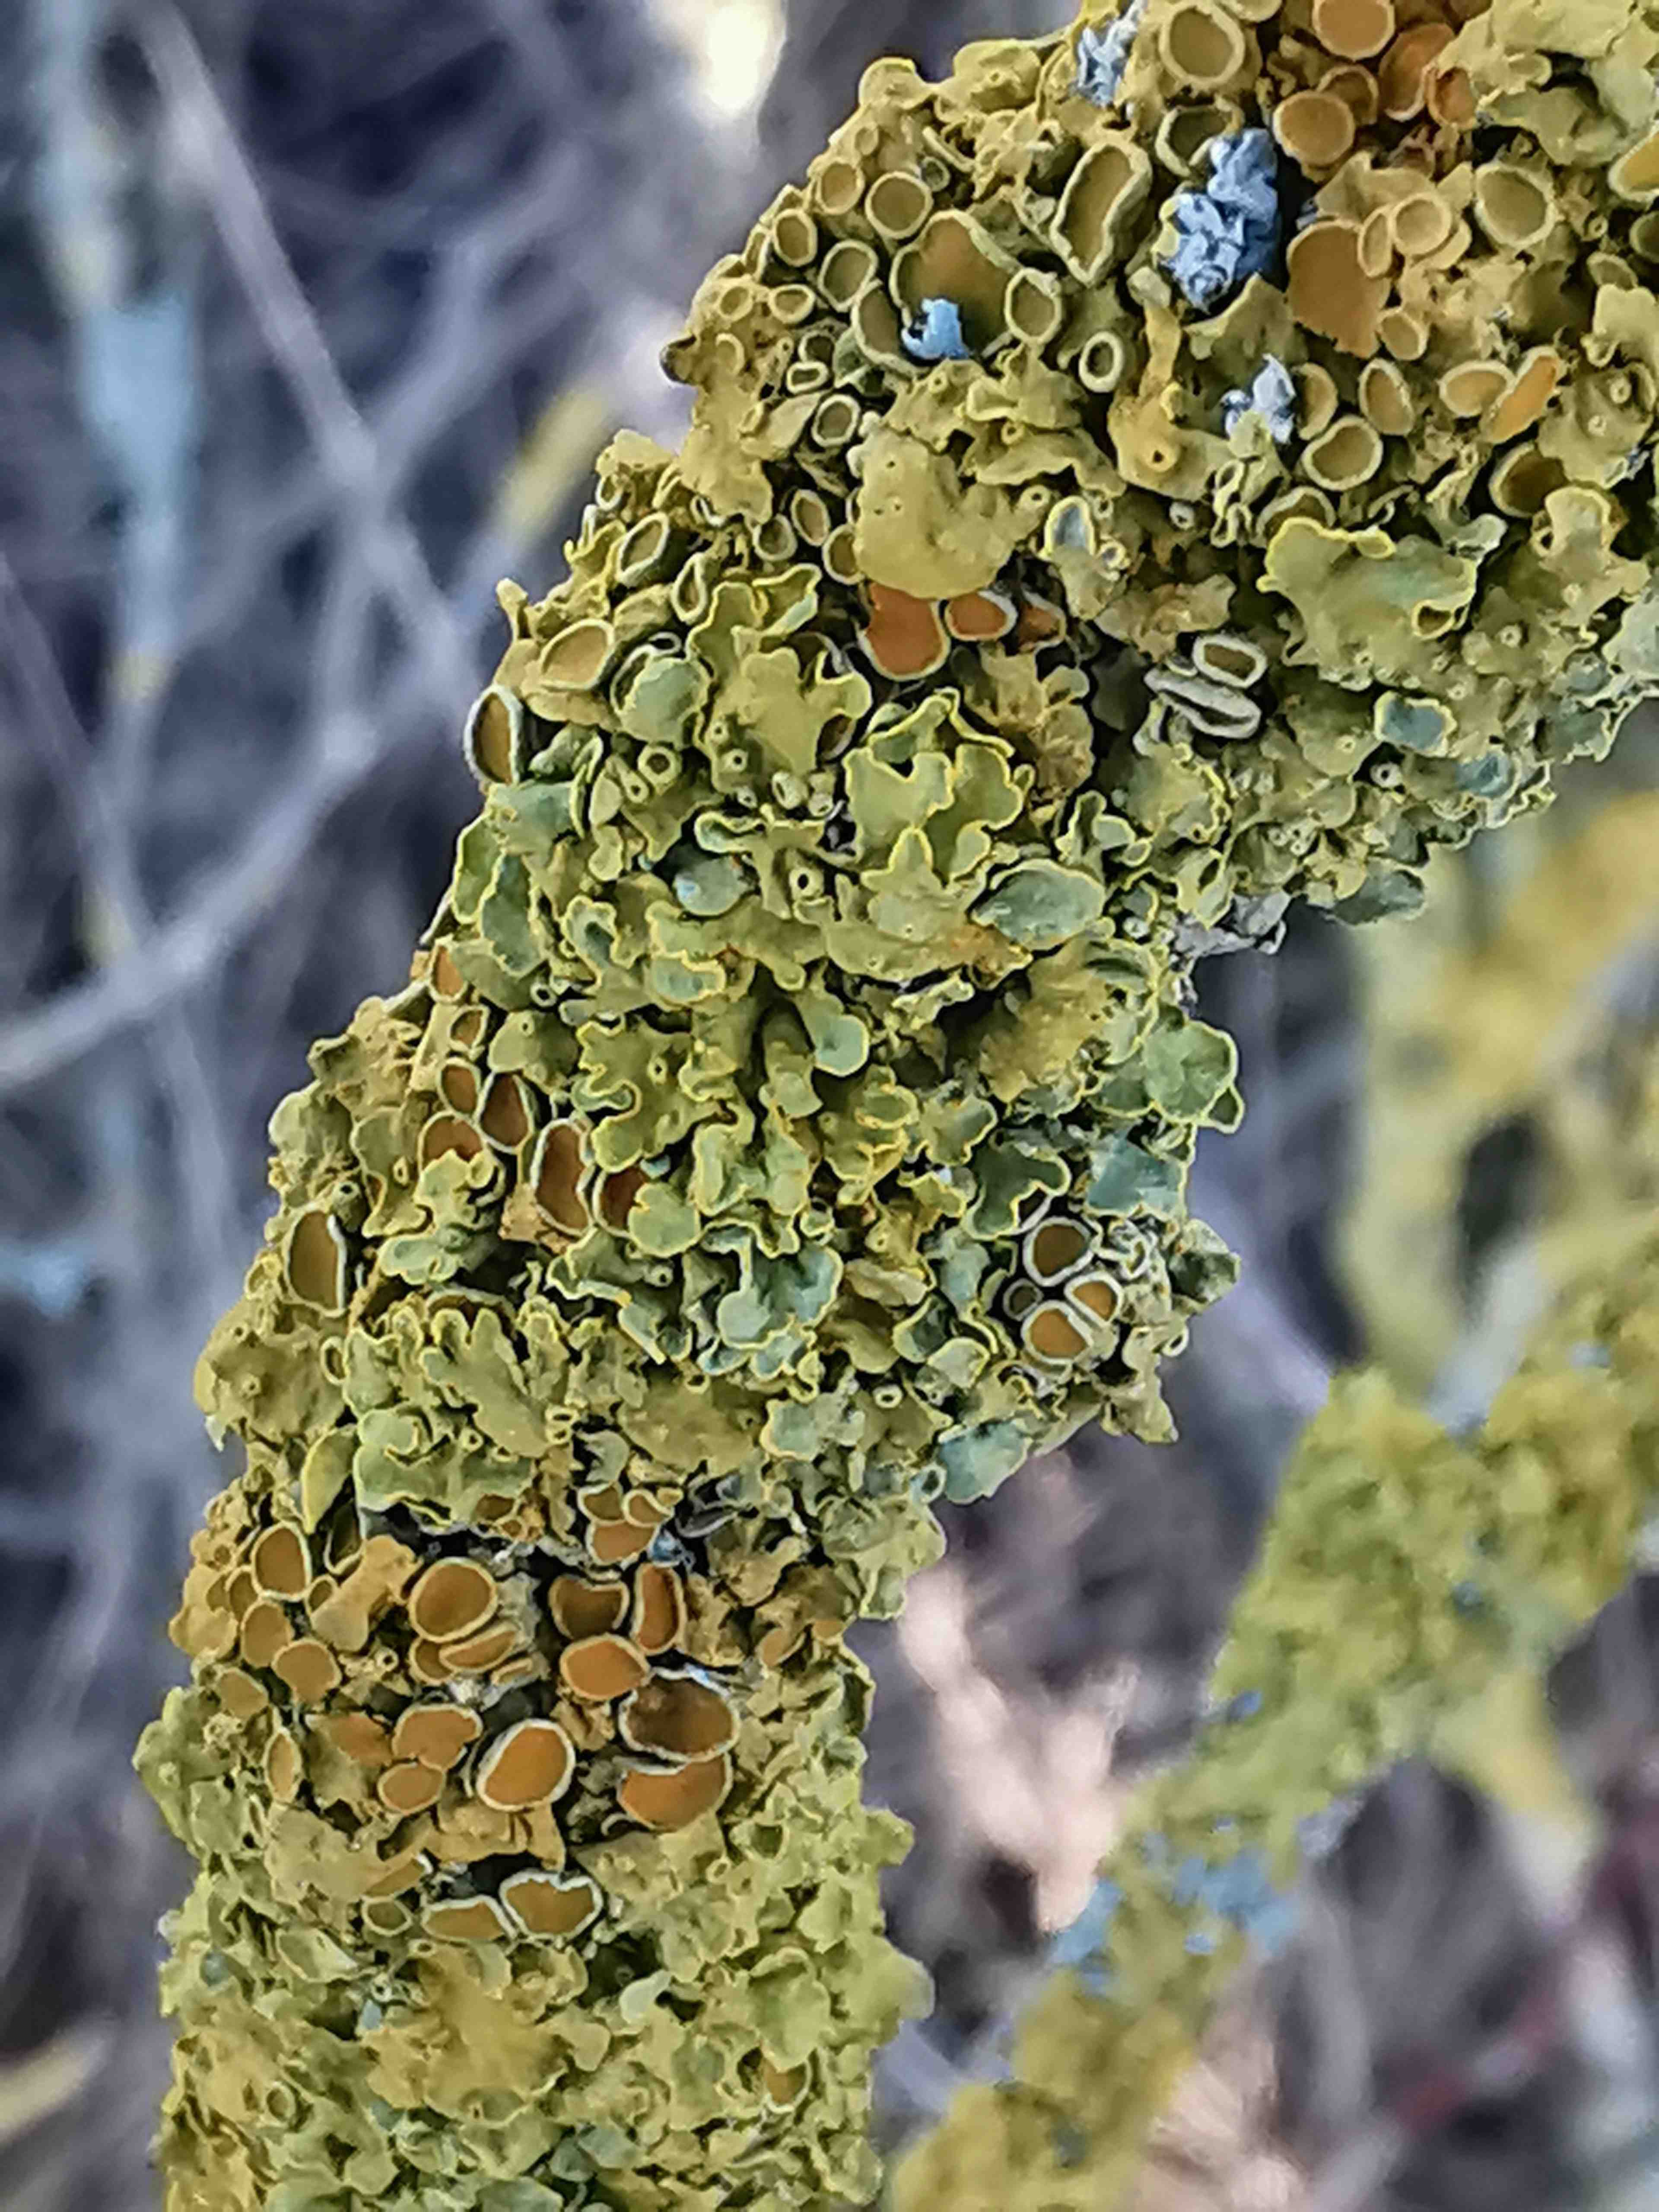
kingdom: Fungi
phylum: Ascomycota
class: Lecanoromycetes
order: Teloschistales
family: Teloschistaceae
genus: Xanthoria
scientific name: Xanthoria parietina
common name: almindelig væggelav
